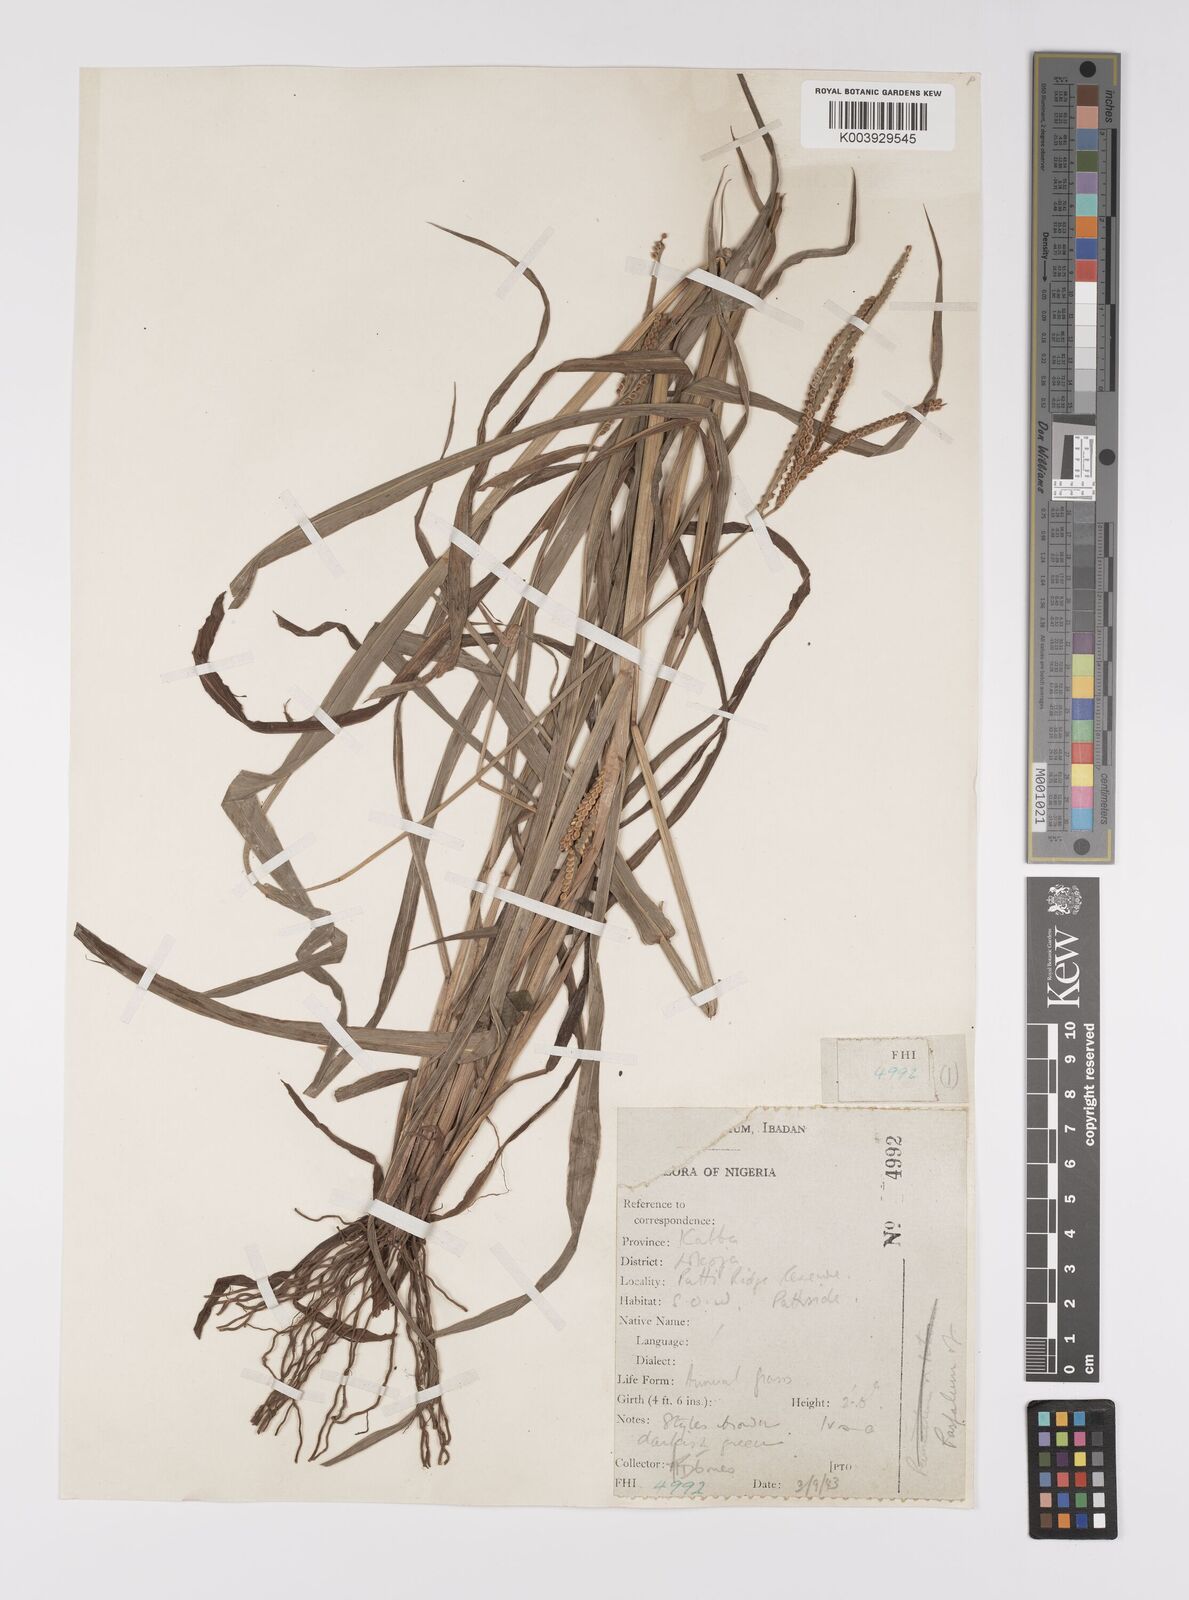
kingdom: Plantae
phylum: Tracheophyta
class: Liliopsida
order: Poales
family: Poaceae
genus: Paspalum
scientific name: Paspalum scrobiculatum
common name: Kodo millet
